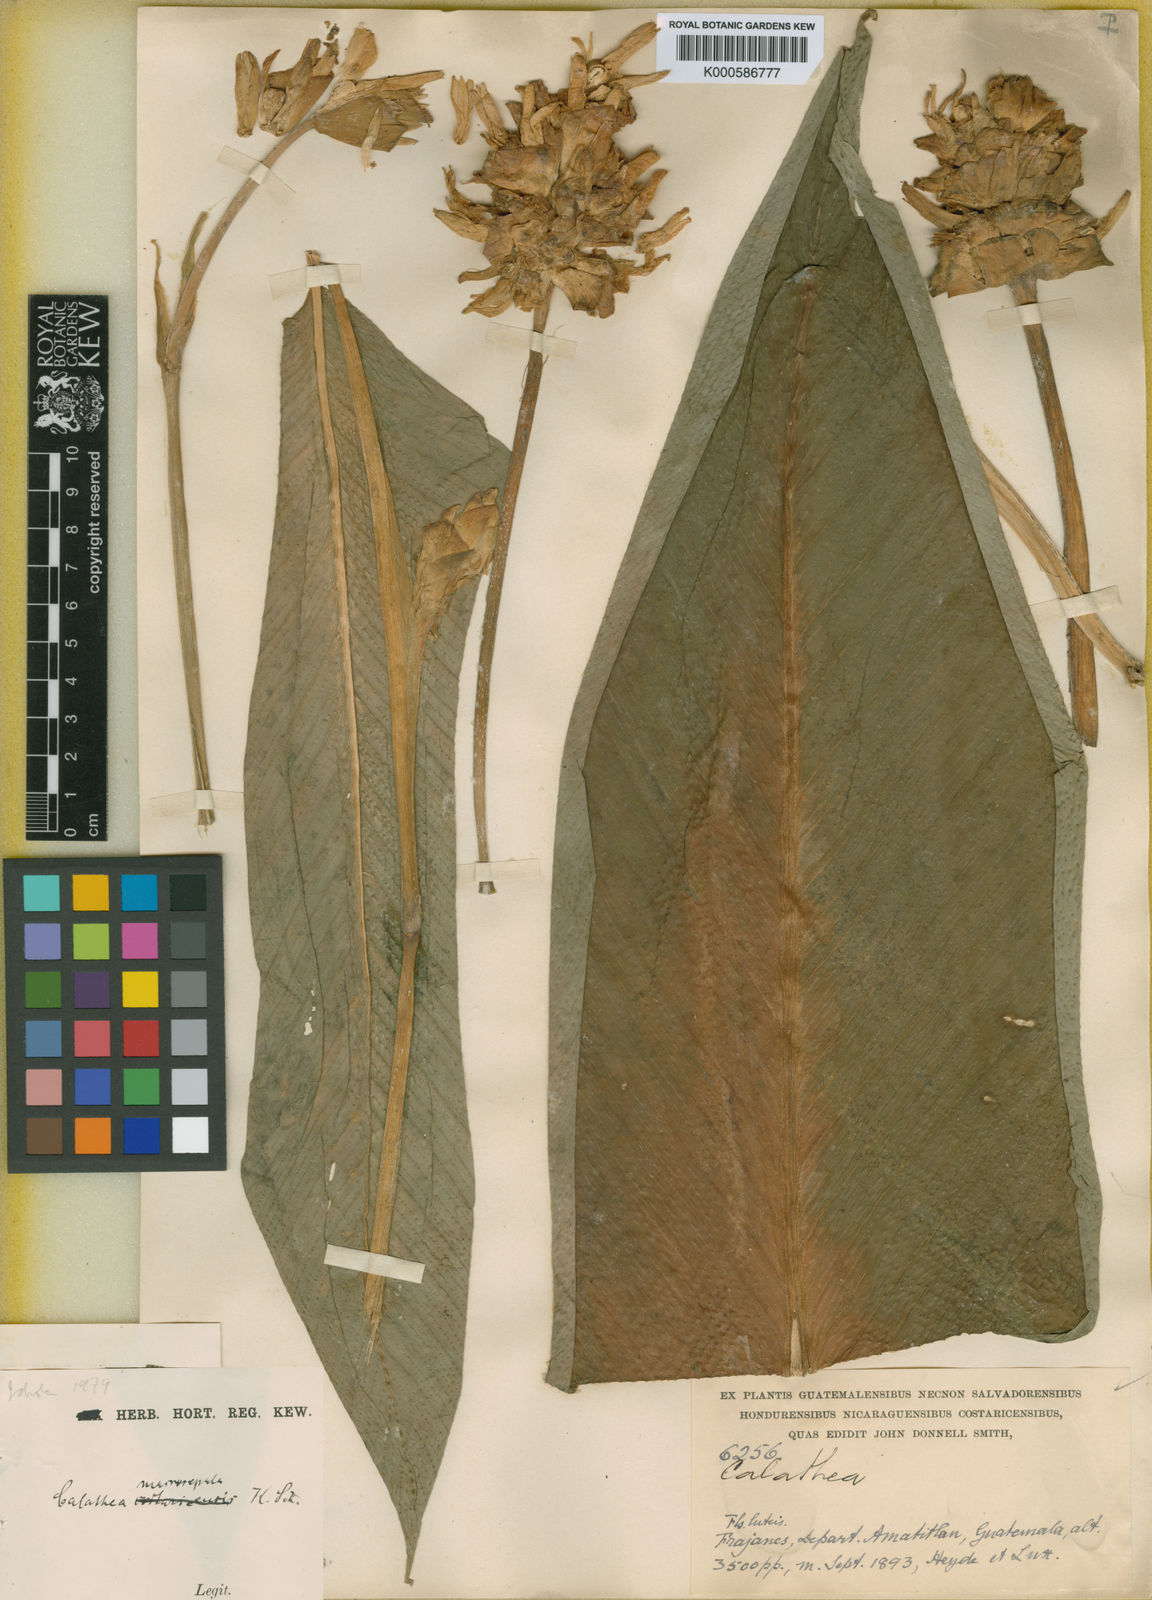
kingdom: Plantae
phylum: Tracheophyta
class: Liliopsida
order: Zingiberales
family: Marantaceae
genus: Goeppertia
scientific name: Goeppertia macrosepala
